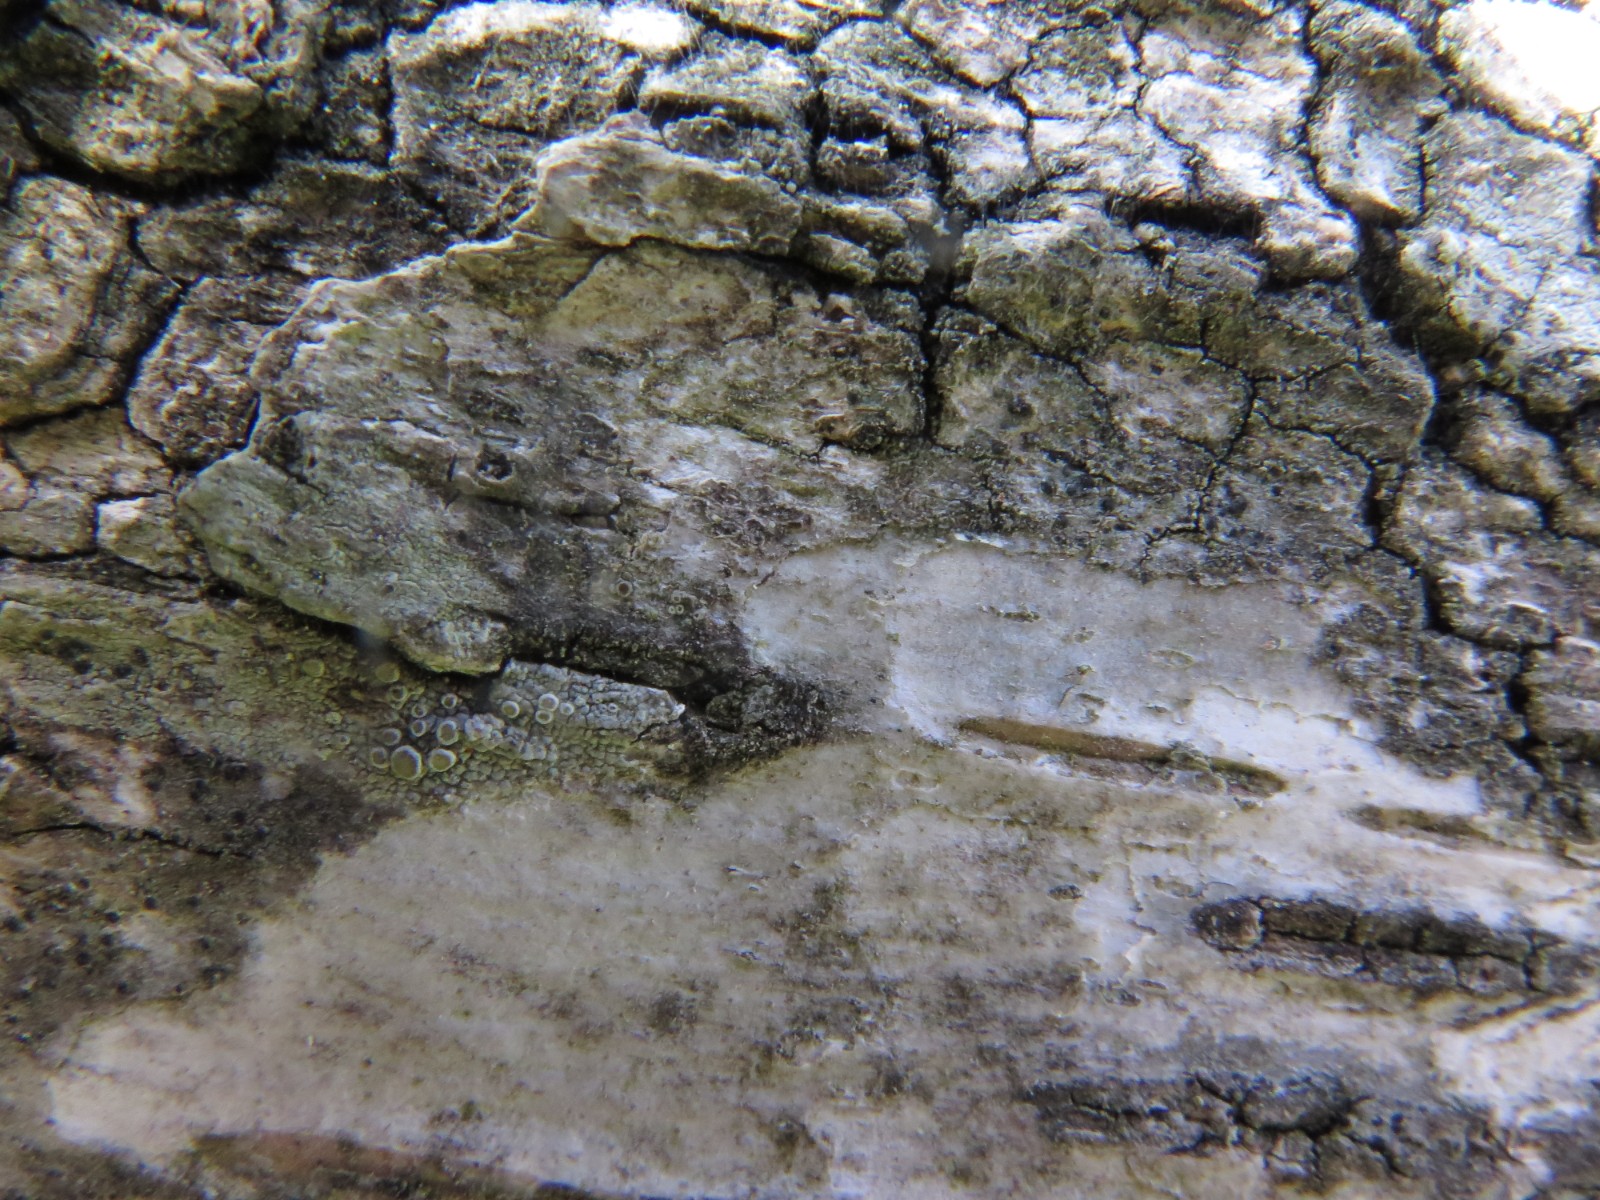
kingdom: Fungi
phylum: Ascomycota
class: Lecanoromycetes
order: Lecanorales
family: Lecanoraceae
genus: Lecanora
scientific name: Lecanora chlarotera
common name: brun kantskivelav
